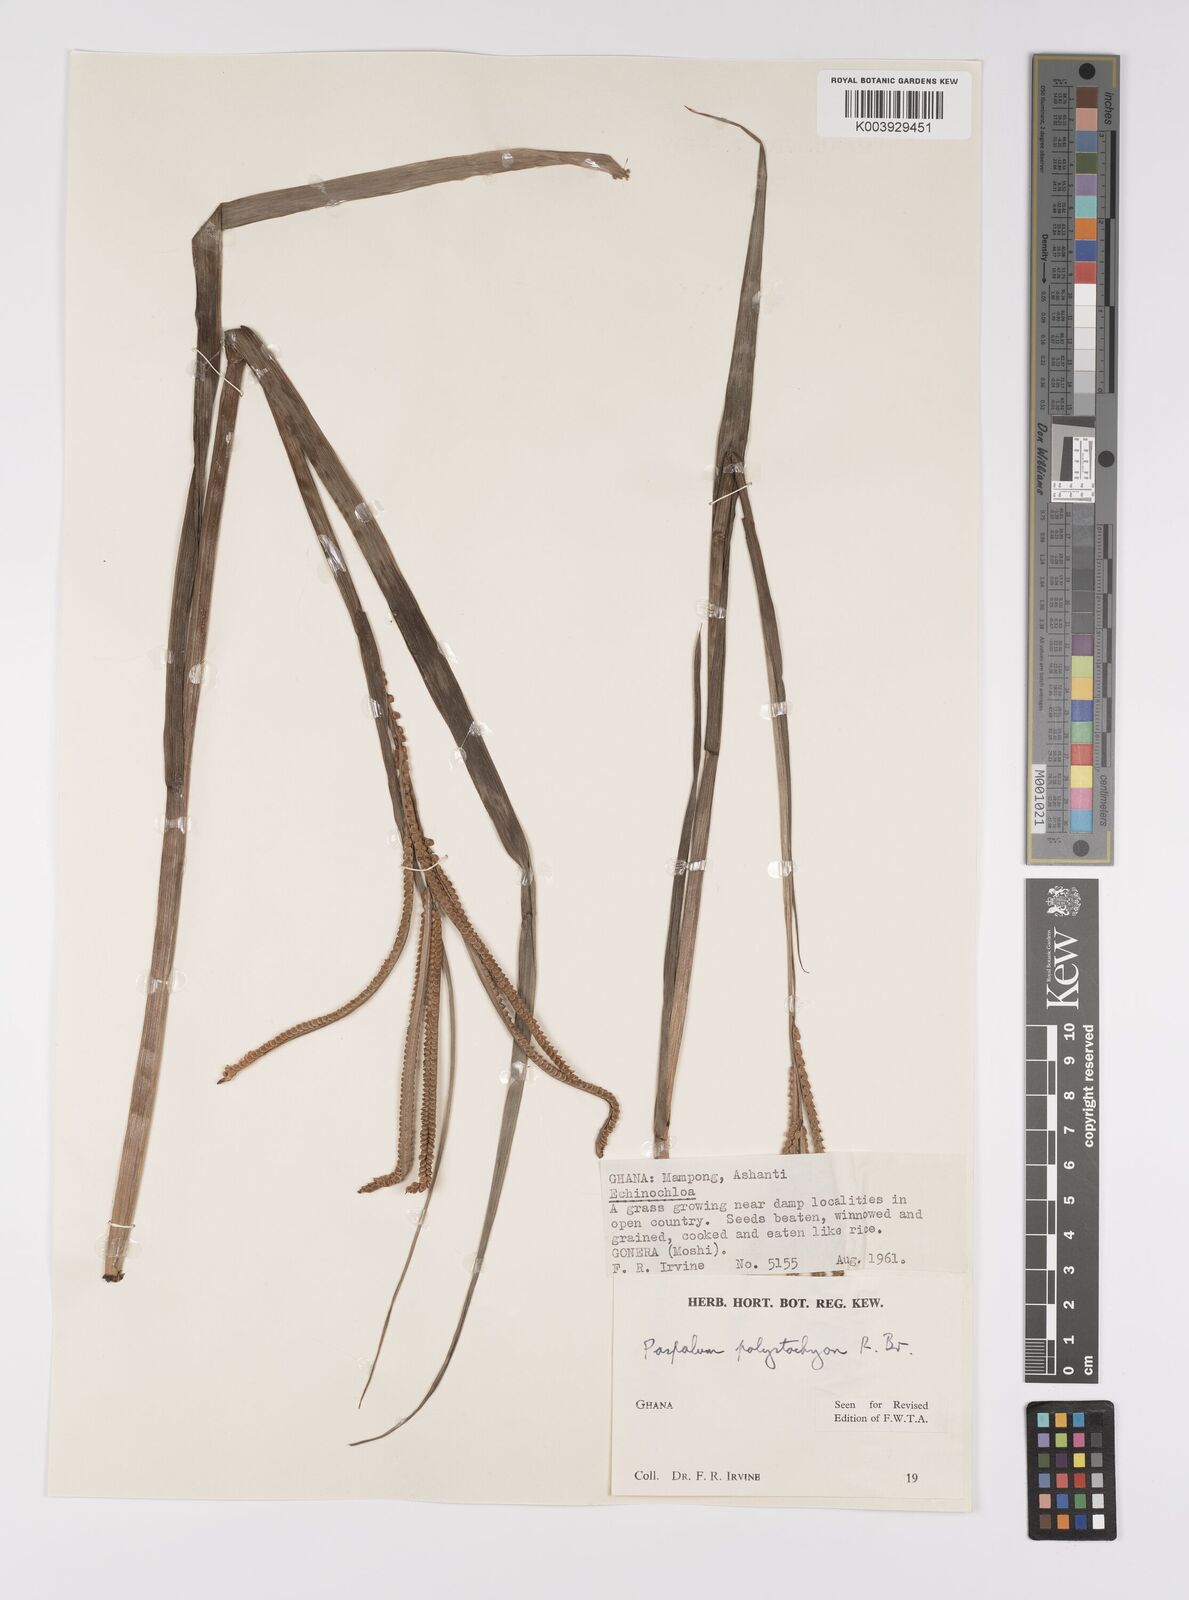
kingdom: Plantae
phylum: Tracheophyta
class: Liliopsida
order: Poales
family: Poaceae
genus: Paspalum
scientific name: Paspalum scrobiculatum
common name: Kodo millet
